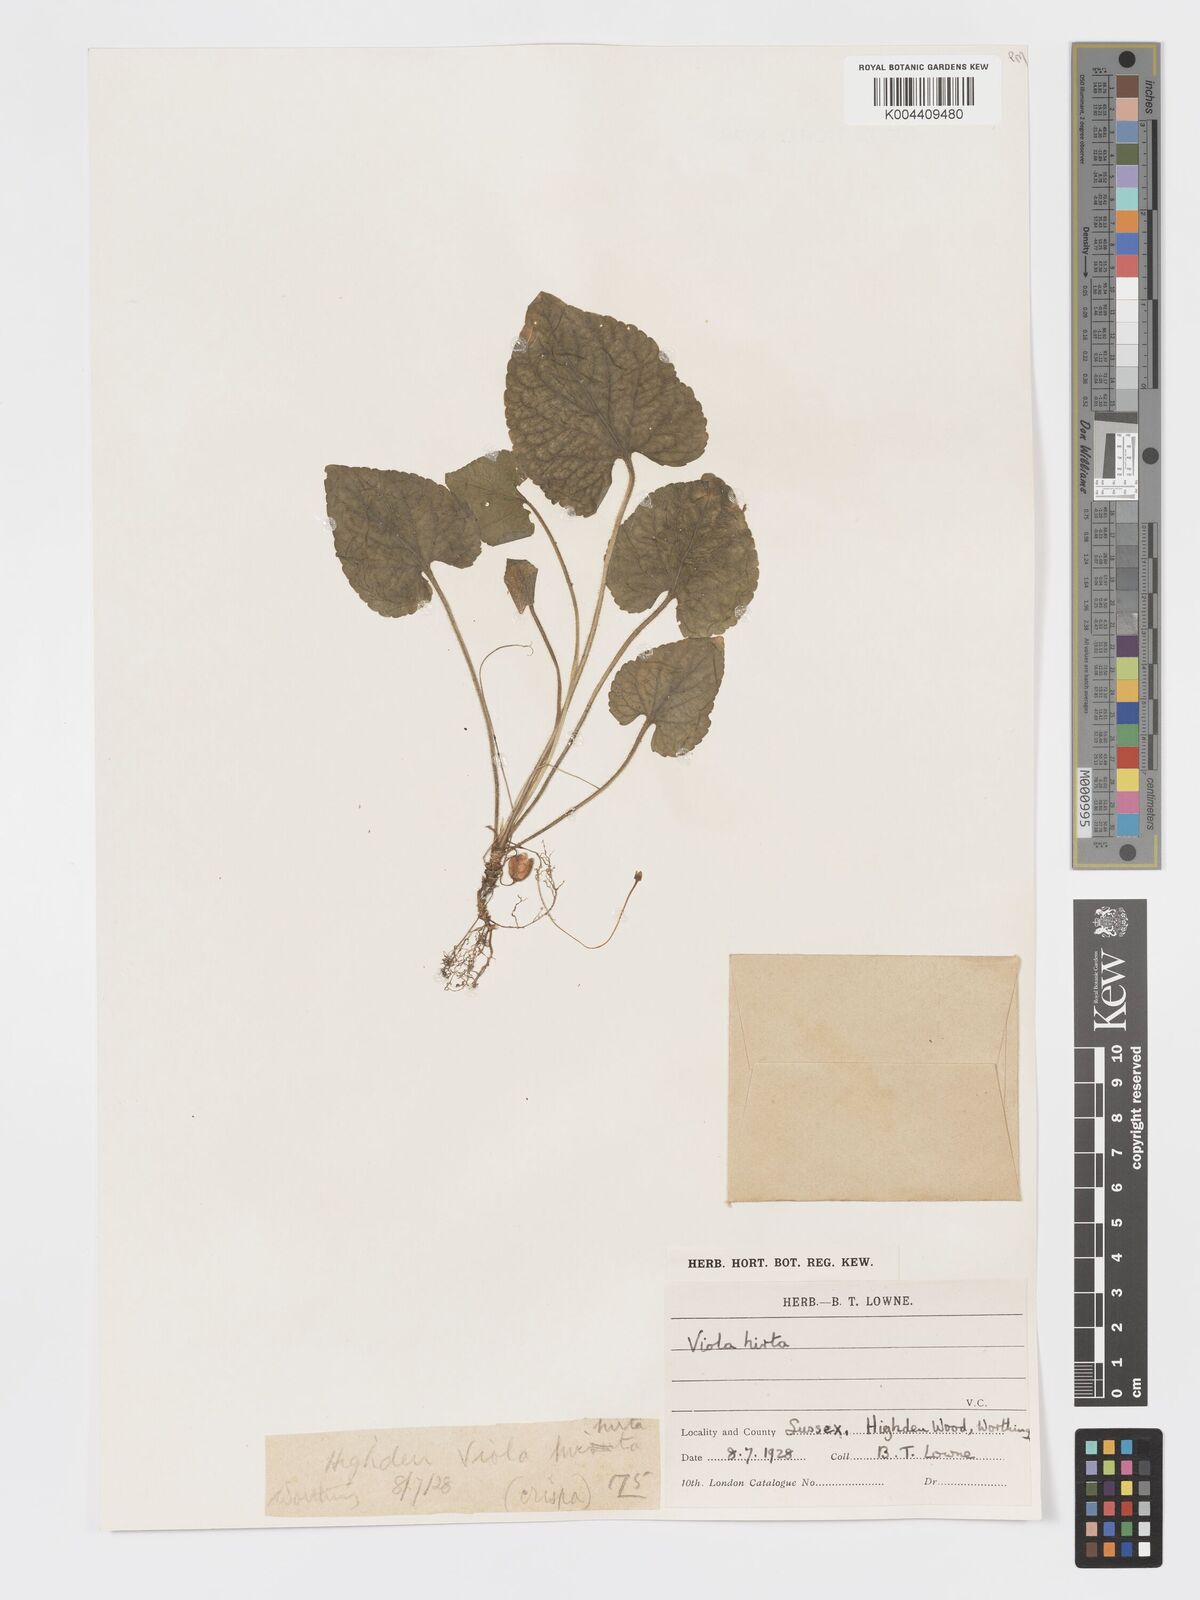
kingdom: Plantae
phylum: Tracheophyta
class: Magnoliopsida
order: Malpighiales
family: Violaceae
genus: Viola
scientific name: Viola
